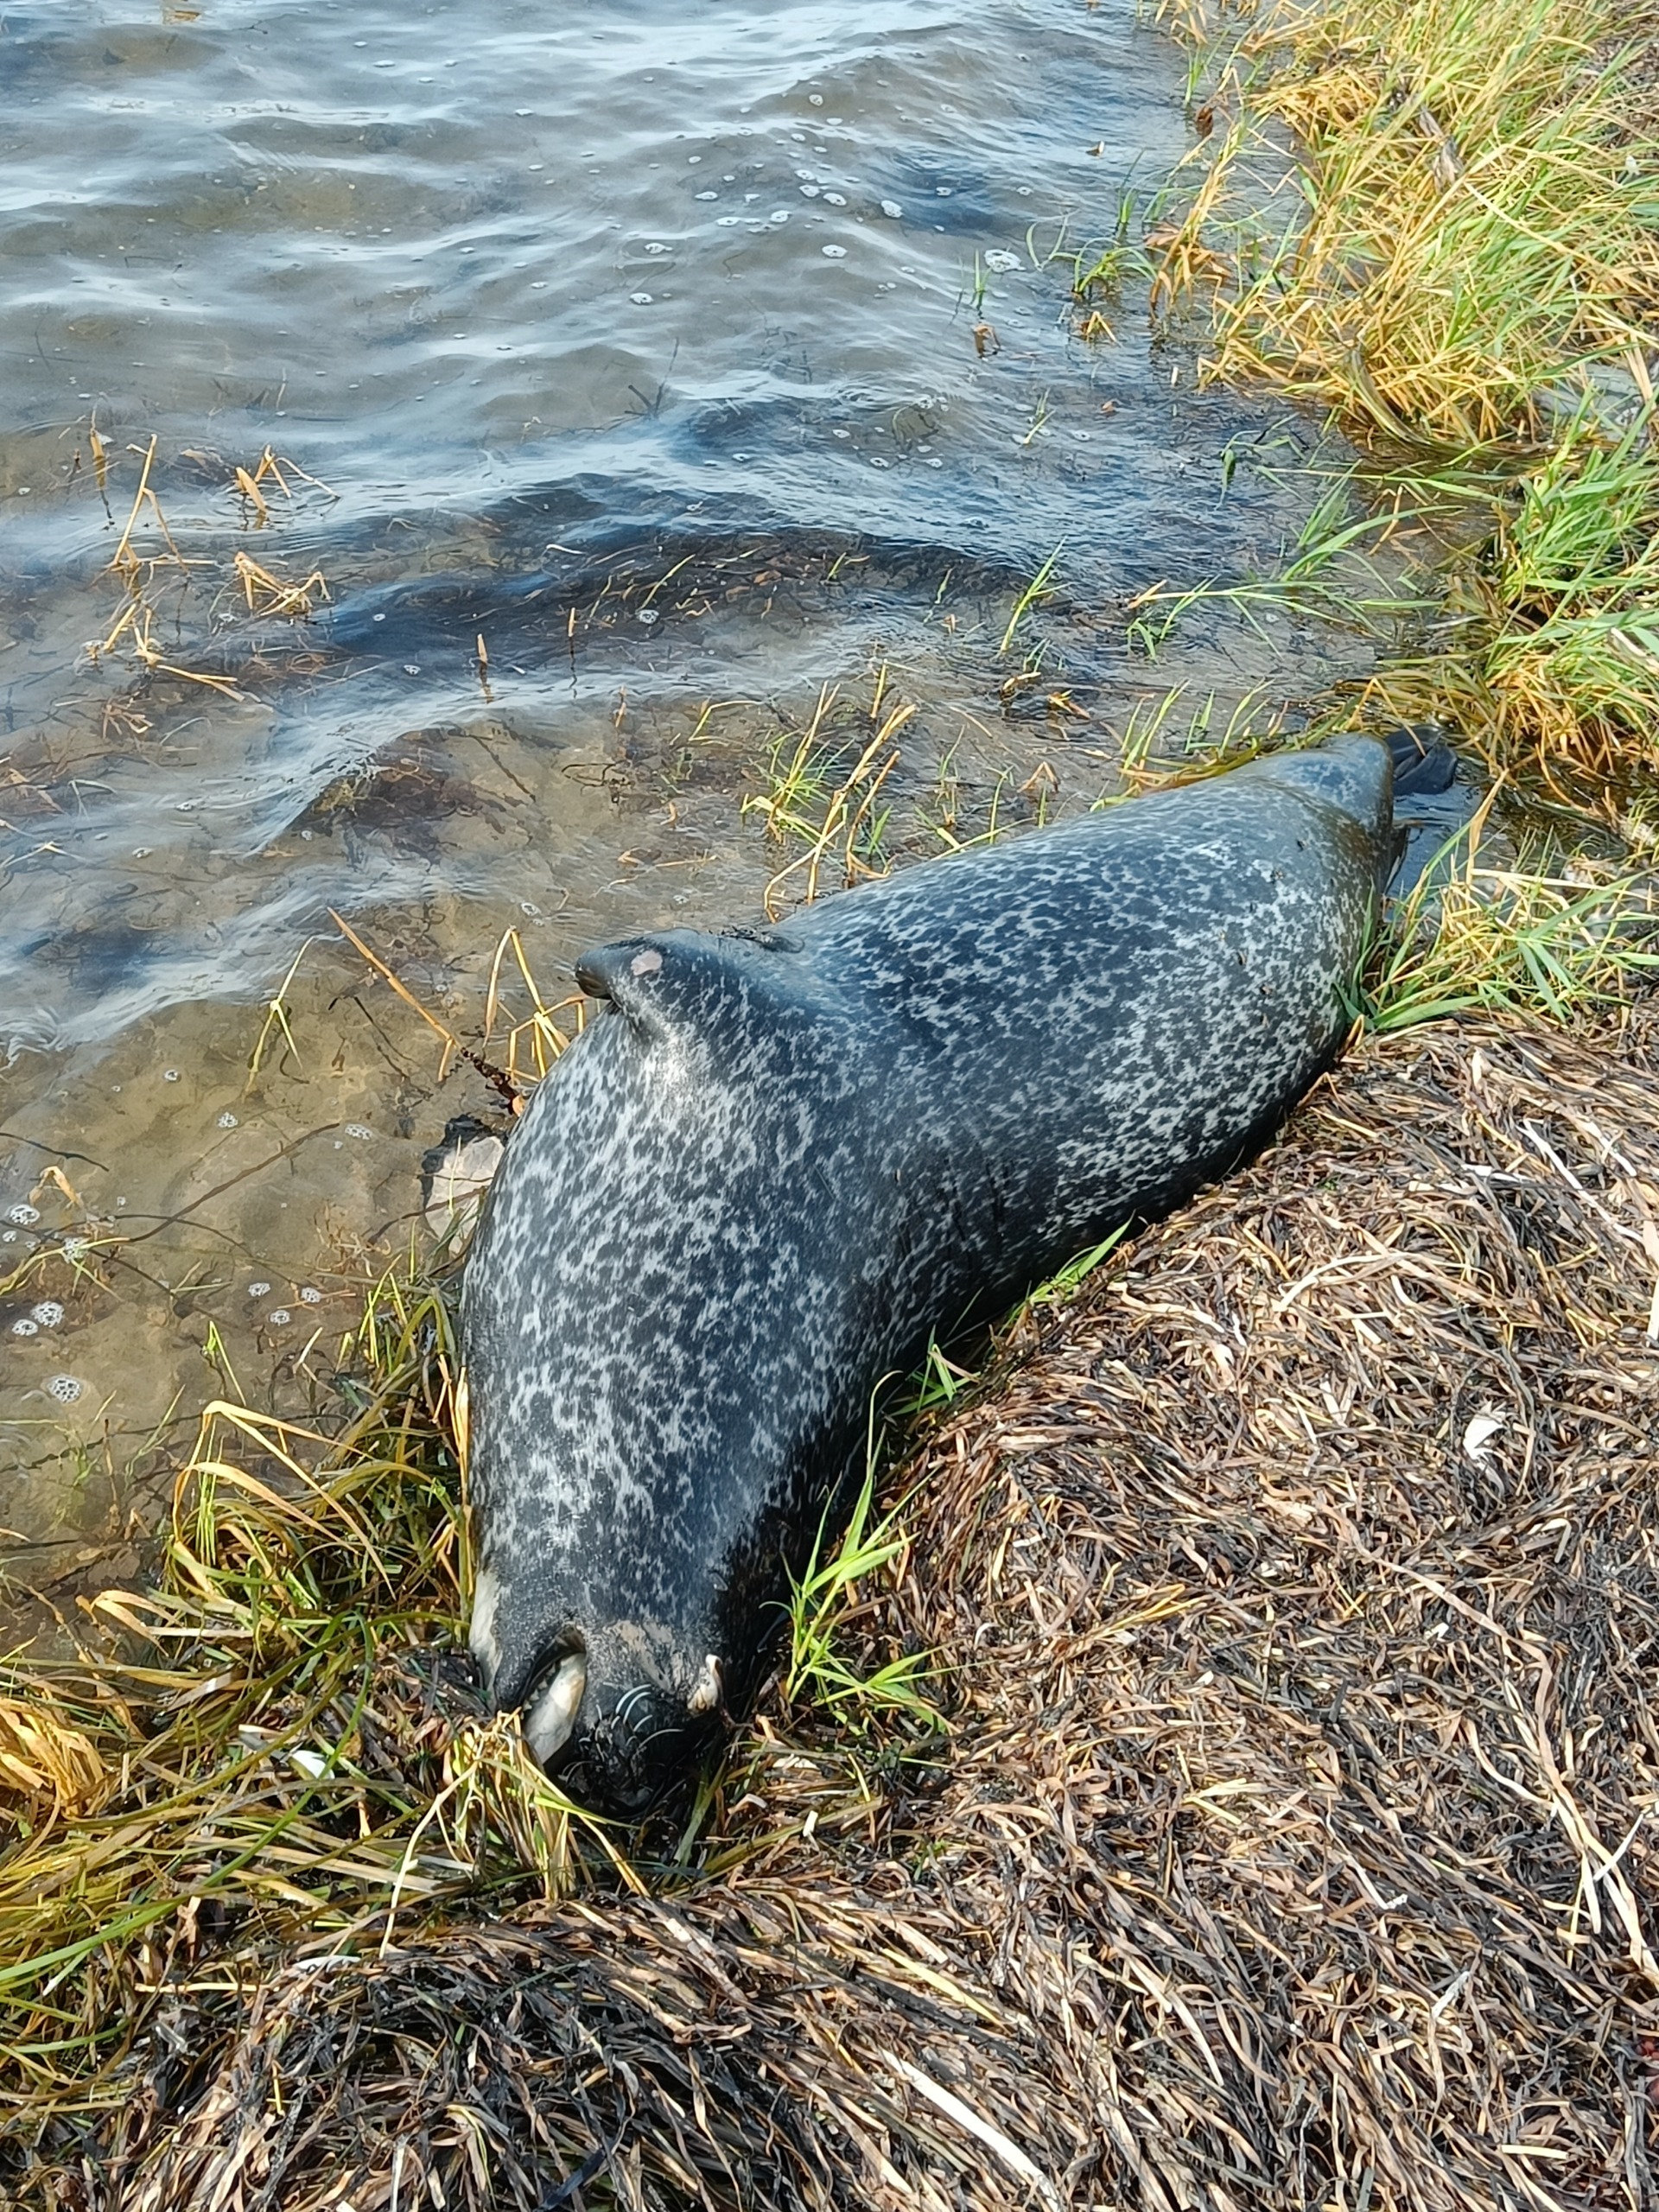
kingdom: Animalia
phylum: Chordata
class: Mammalia
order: Carnivora
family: Phocidae
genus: Phoca
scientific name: Phoca vitulina
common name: Spættet sæl
